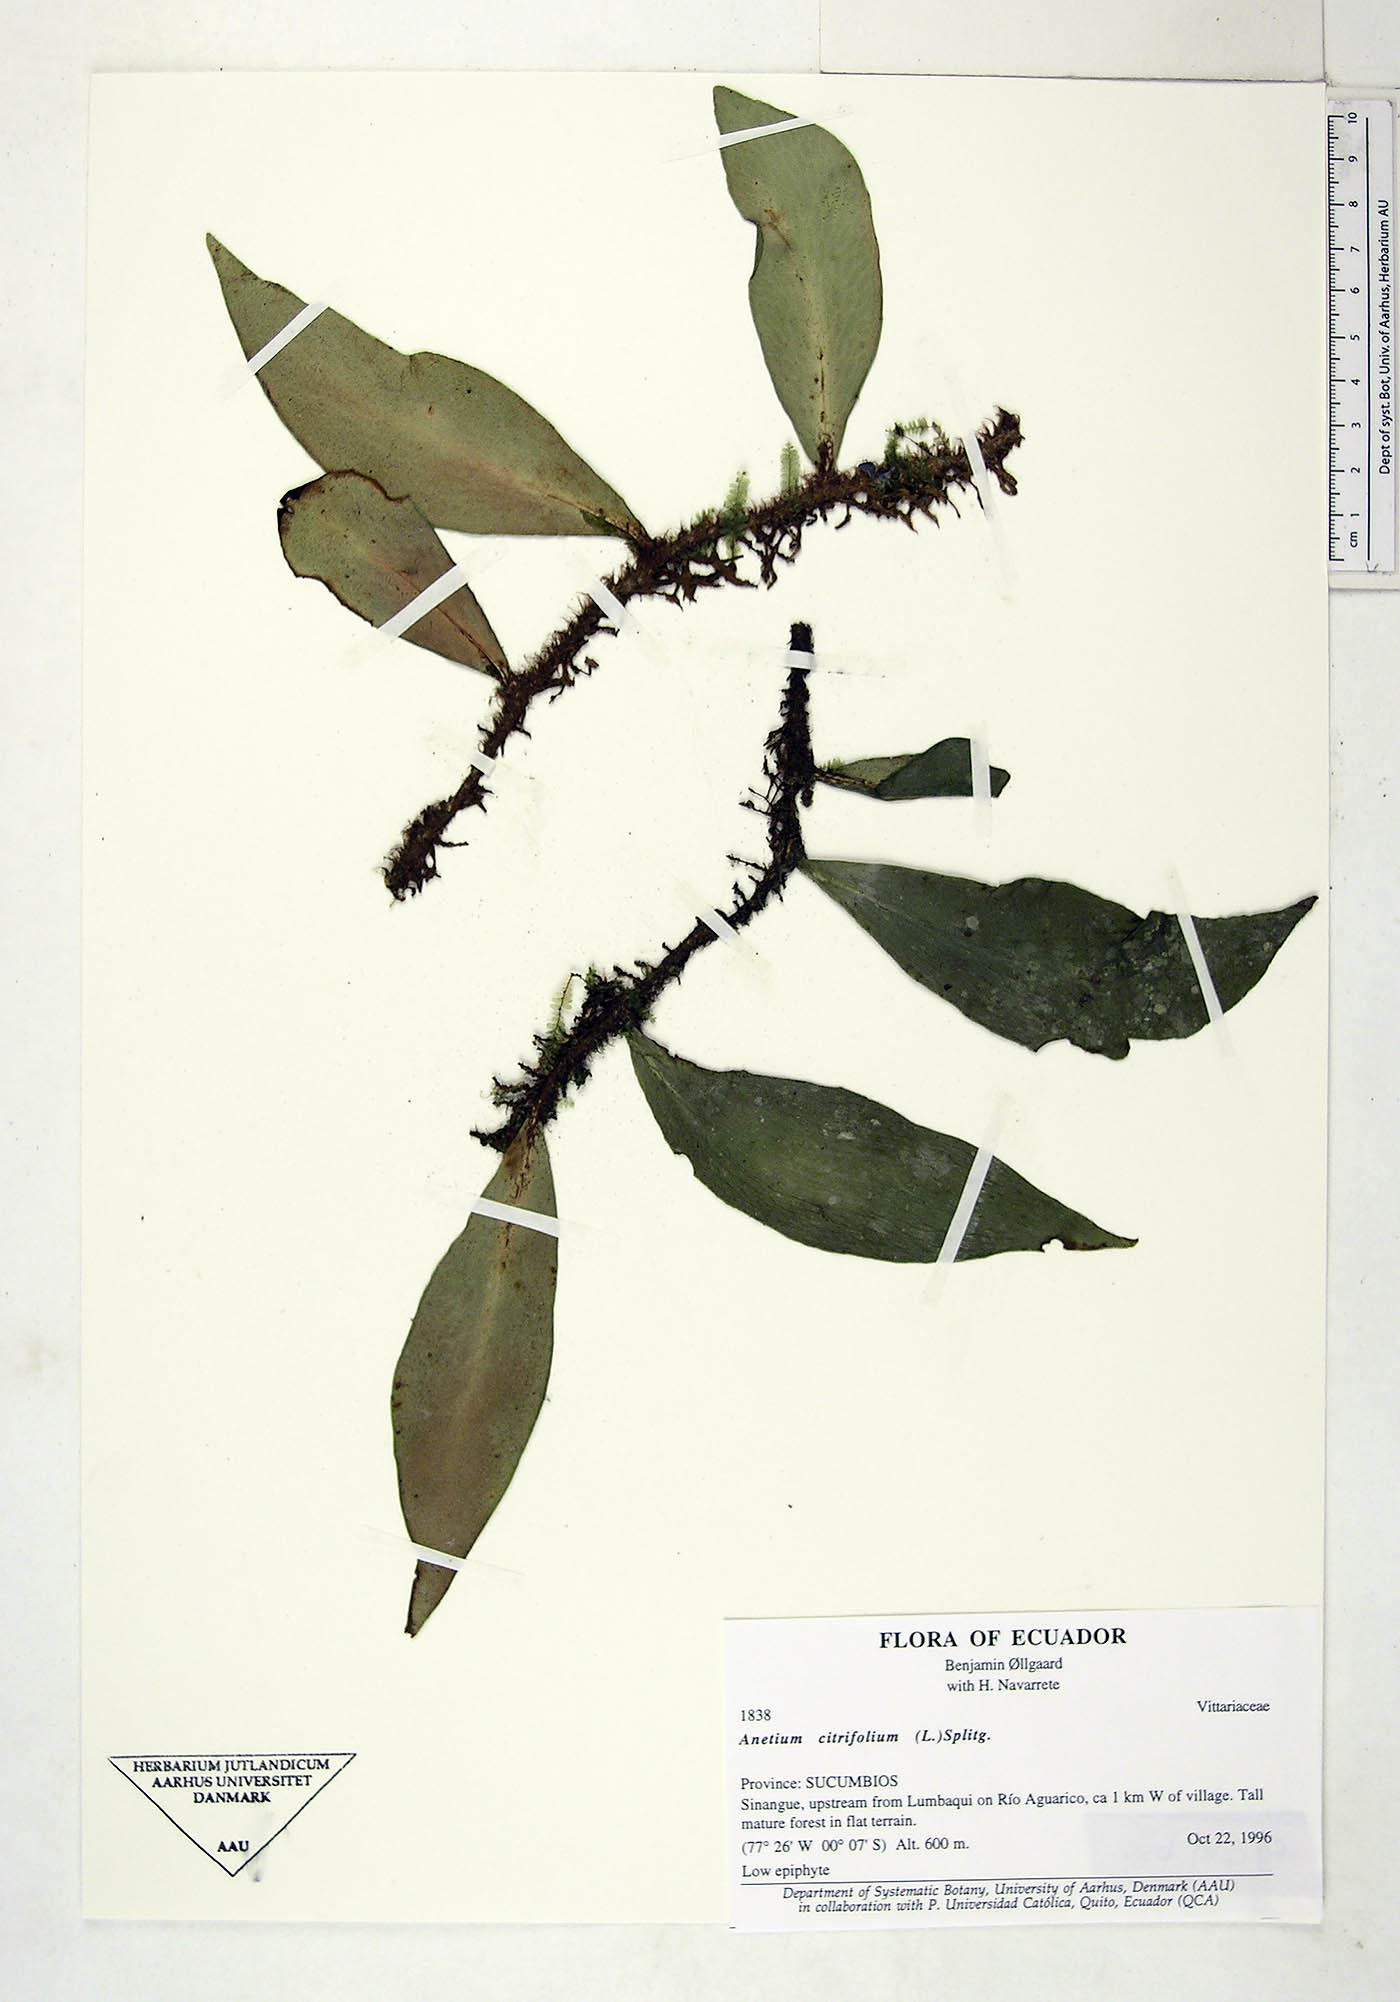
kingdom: Plantae
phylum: Tracheophyta
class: Polypodiopsida
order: Polypodiales
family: Pteridaceae
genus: Polytaenium
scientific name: Polytaenium citrifolium
